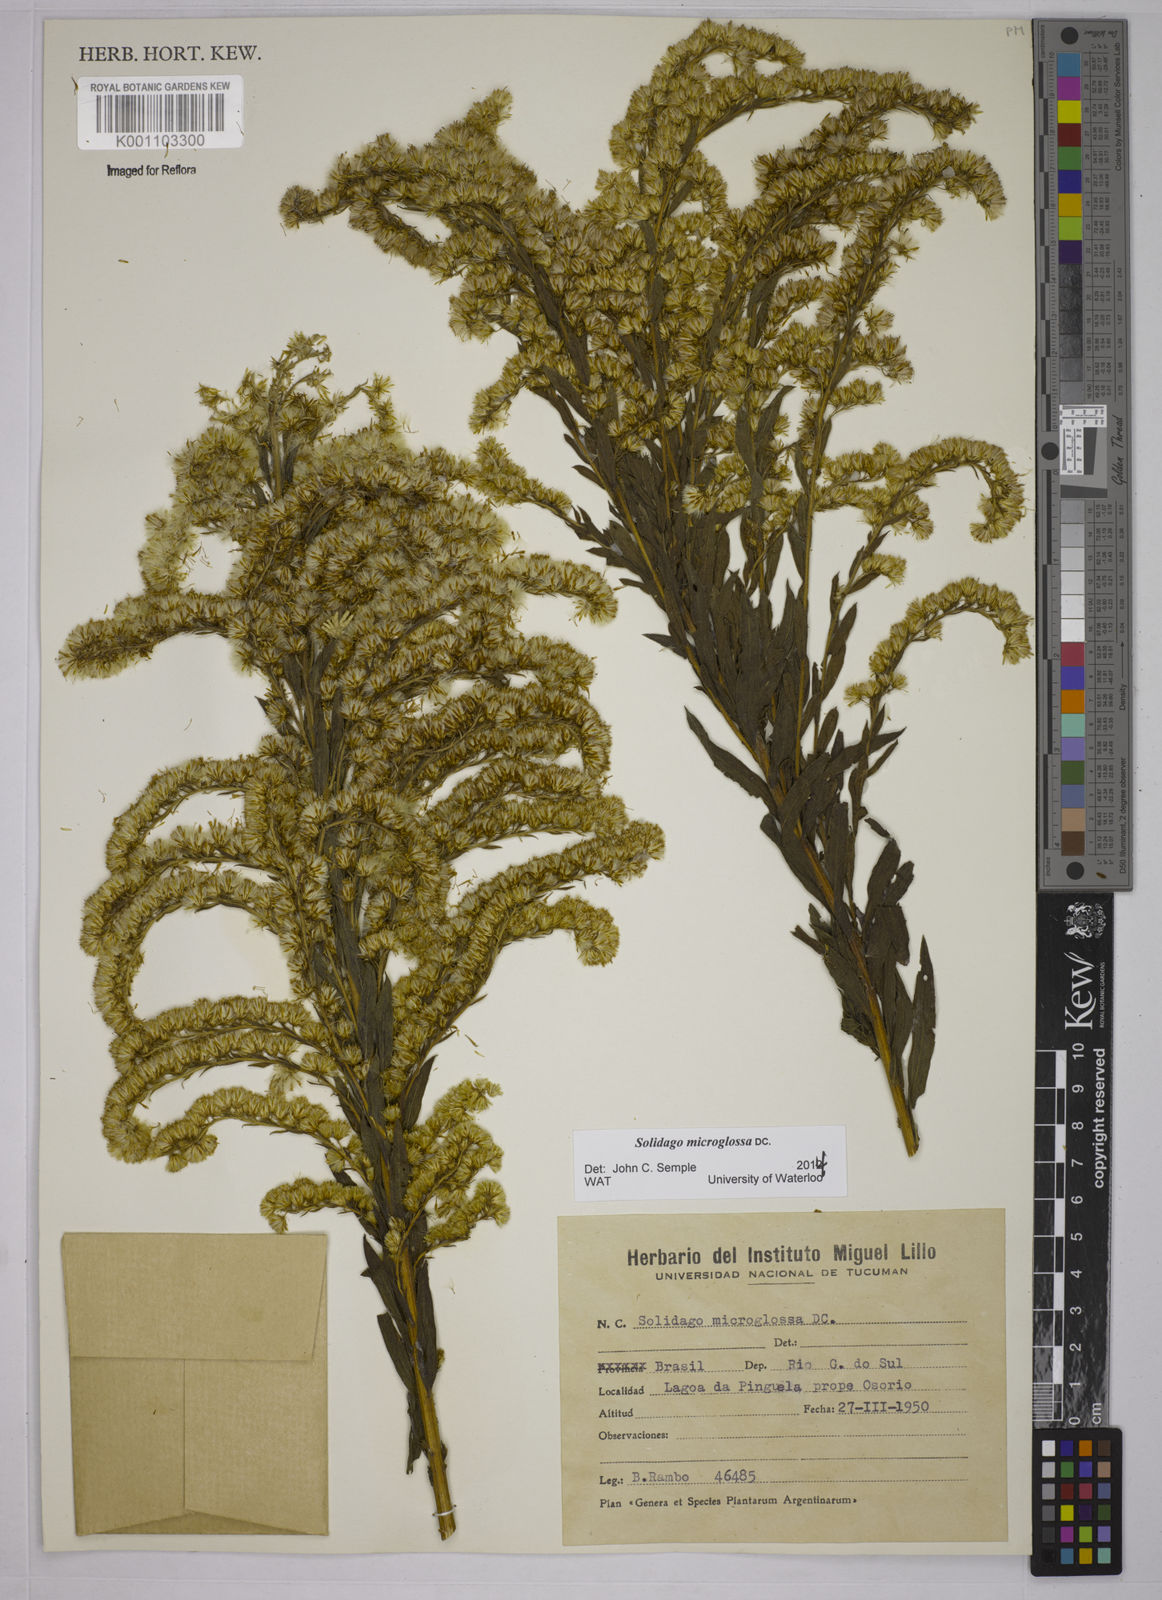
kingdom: Plantae
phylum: Tracheophyta
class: Magnoliopsida
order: Asterales
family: Asteraceae
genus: Solidago
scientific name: Solidago chilensis
